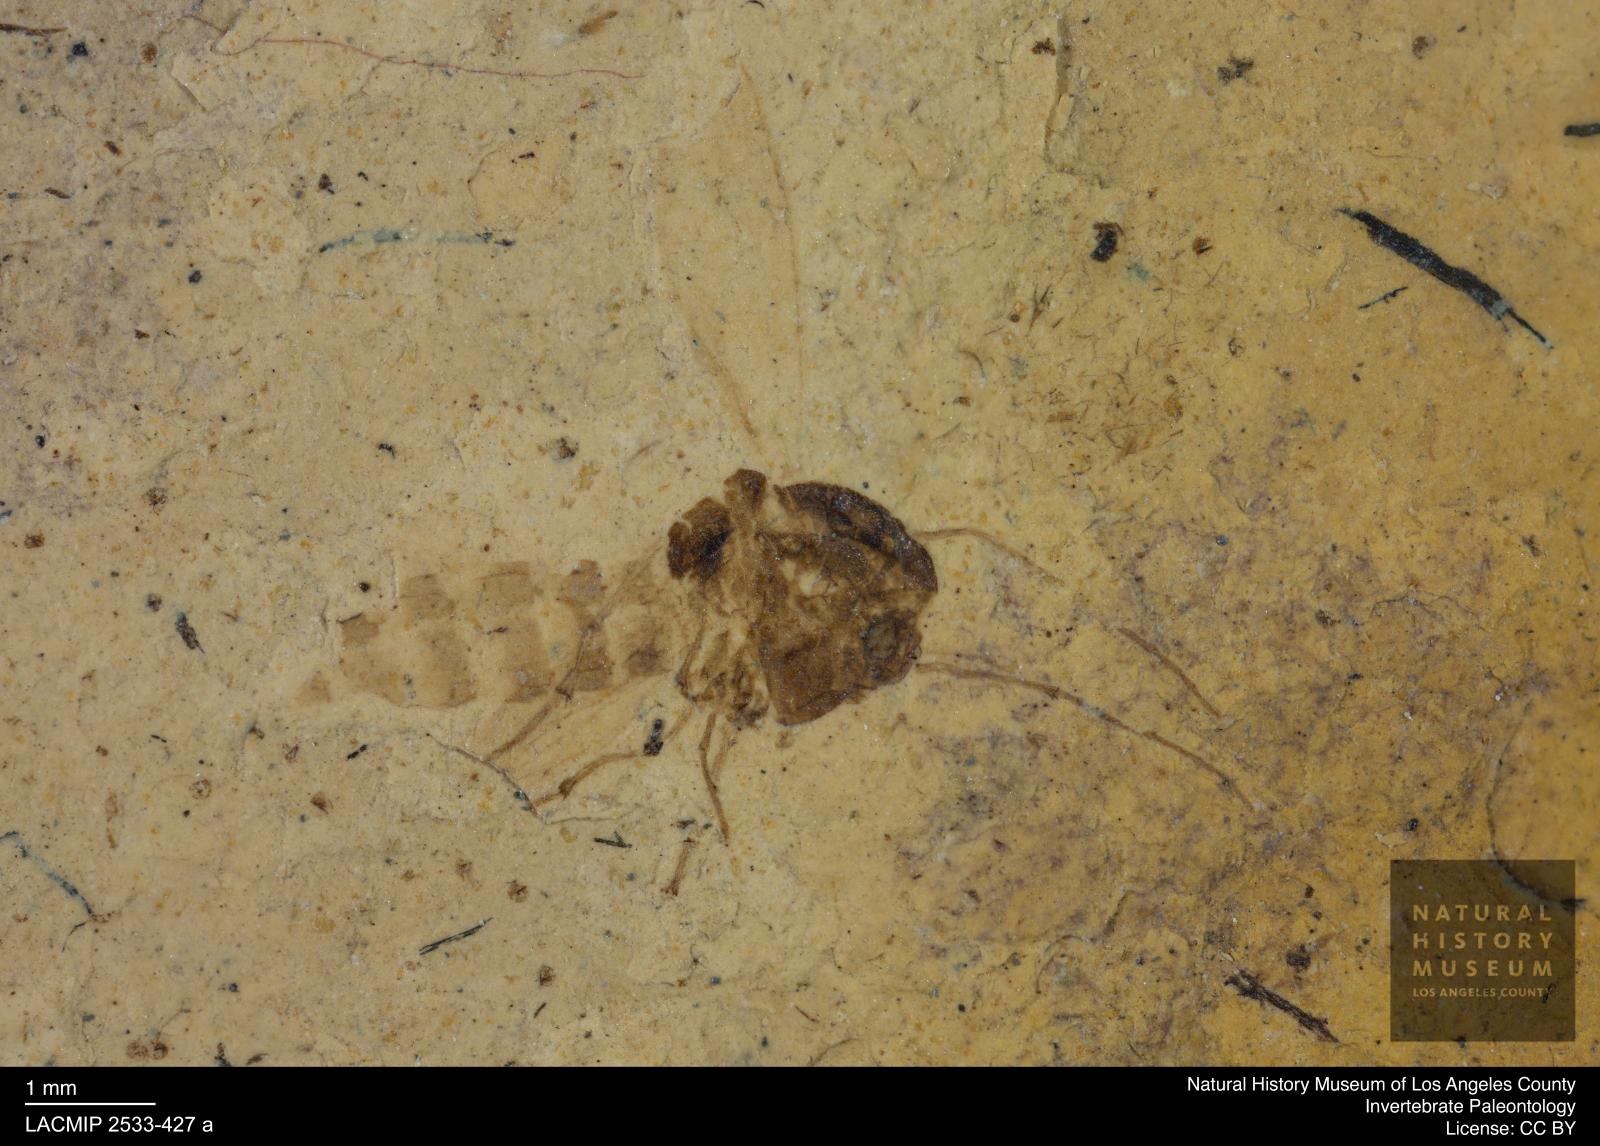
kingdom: Animalia
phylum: Arthropoda
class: Insecta
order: Diptera
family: Chironomidae
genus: Tanypus
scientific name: Tanypus thienemanni
